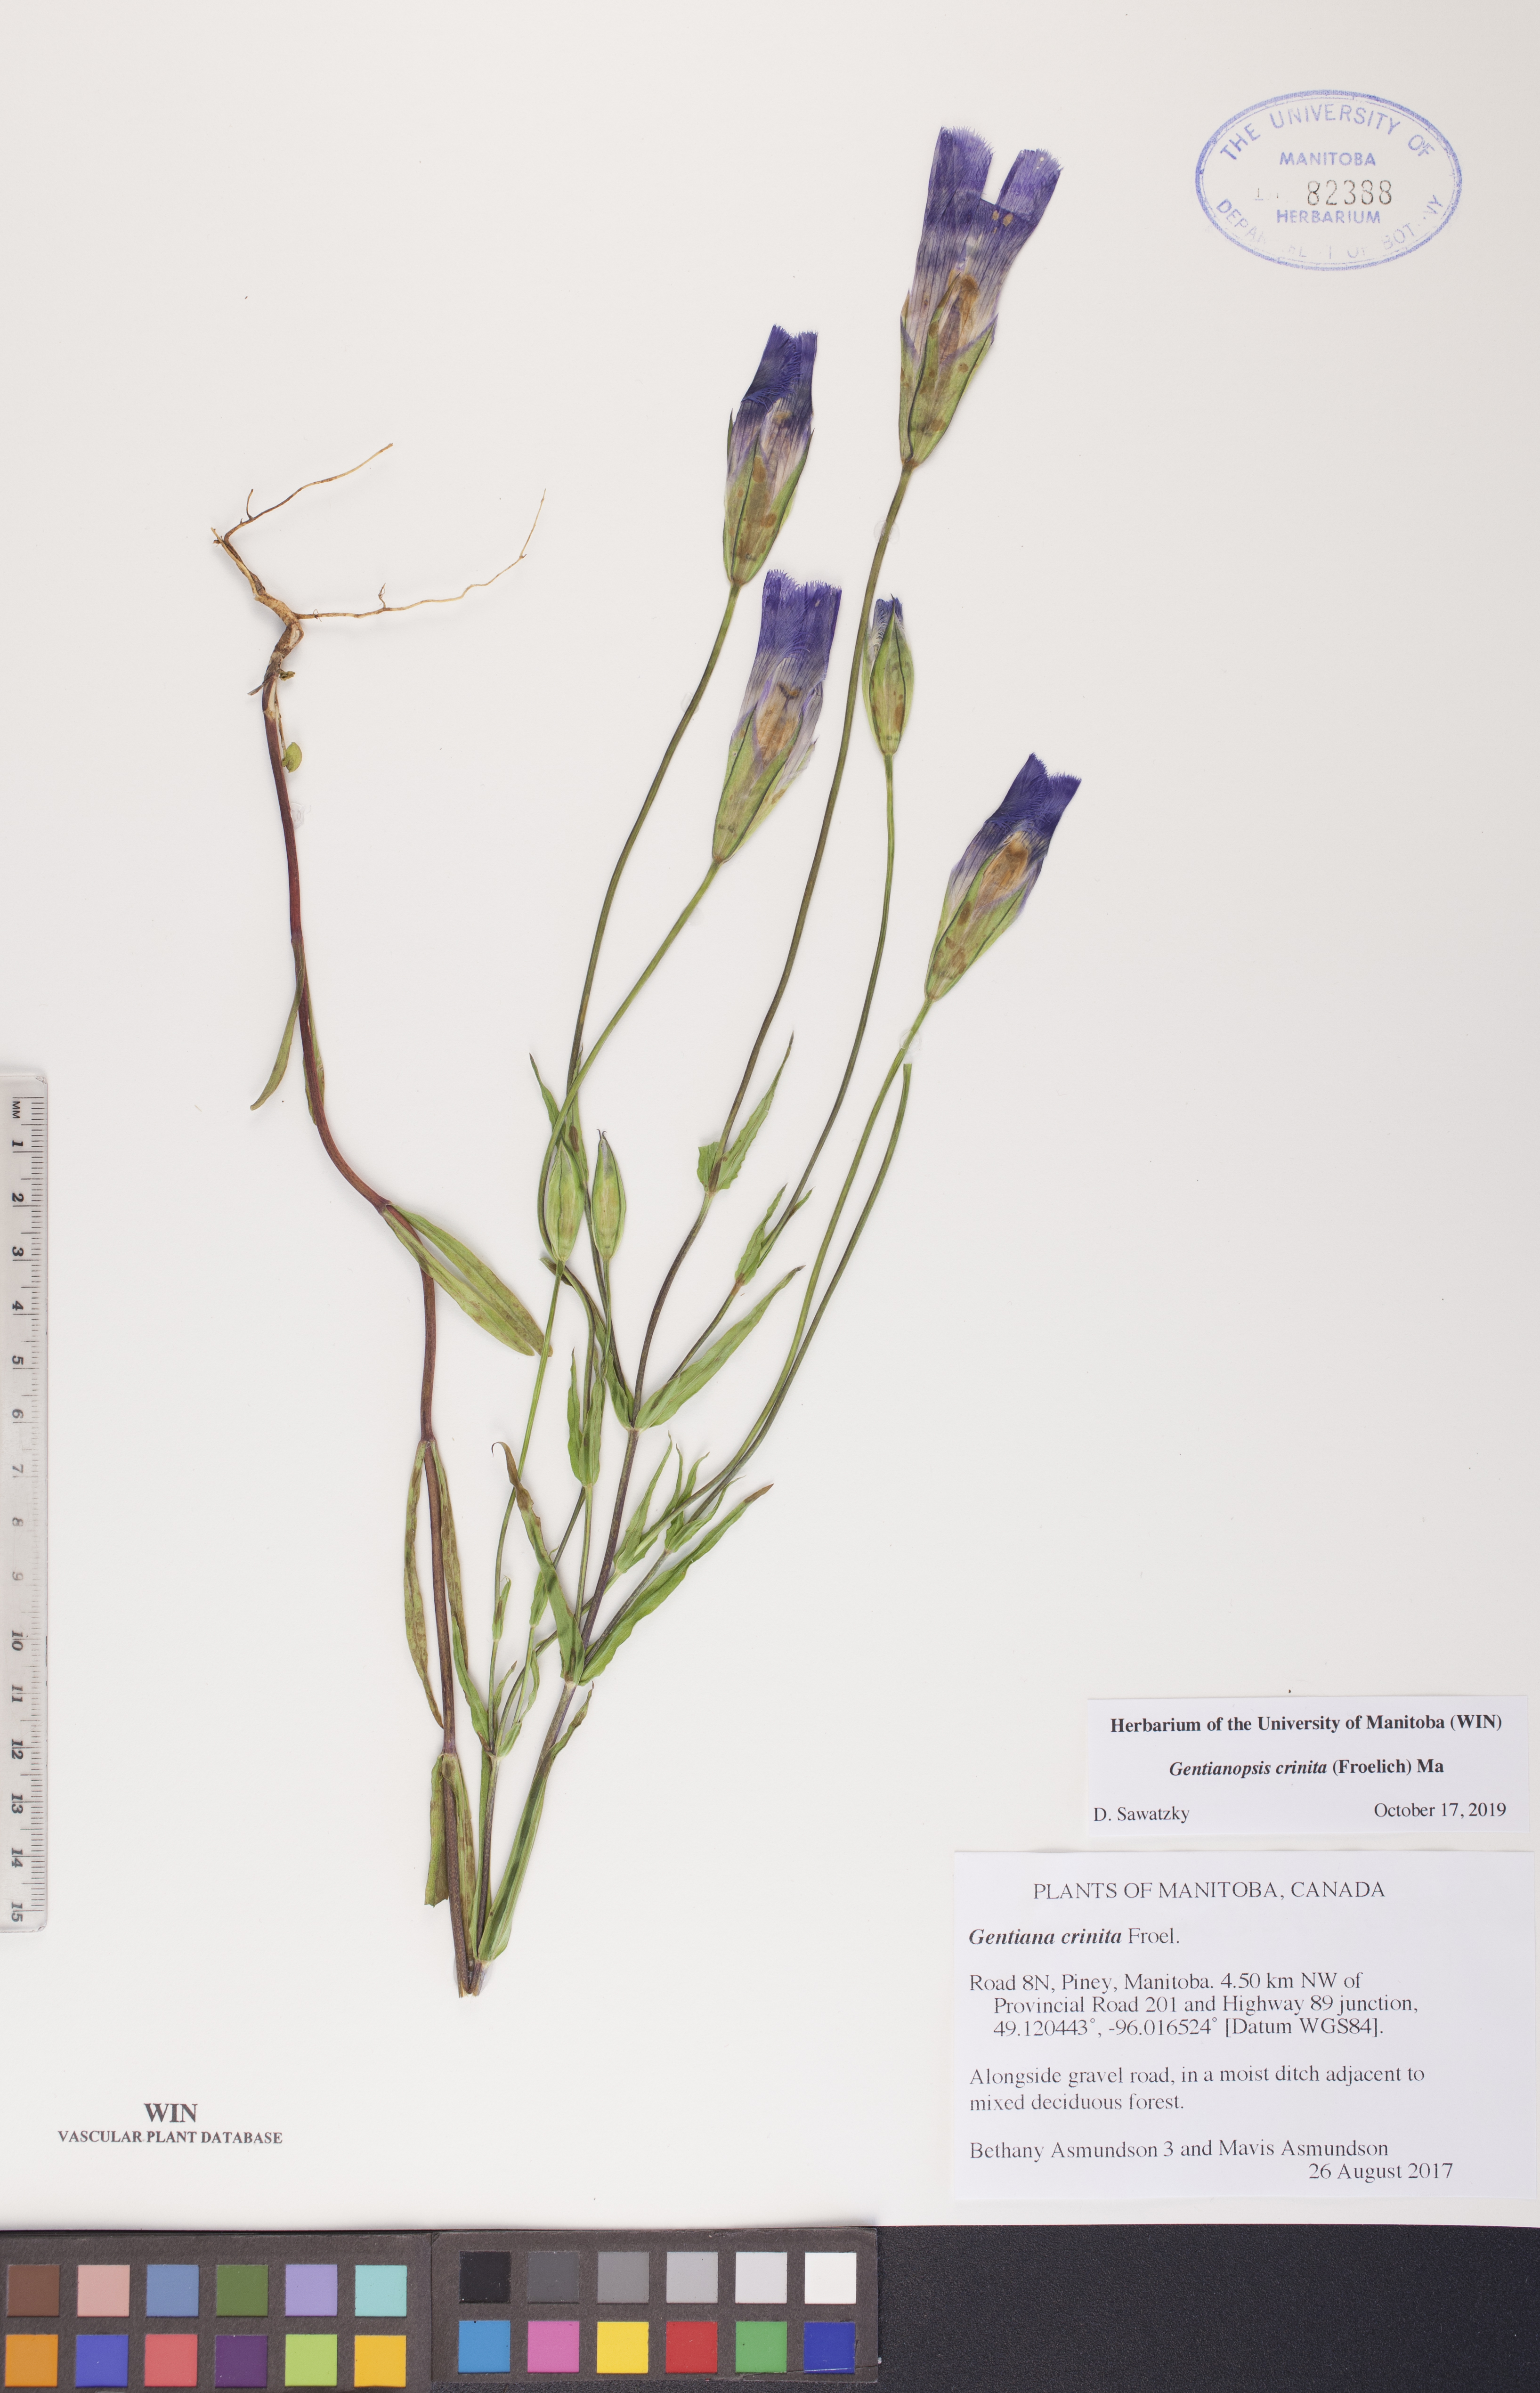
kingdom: Plantae
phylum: Tracheophyta
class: Magnoliopsida
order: Gentianales
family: Gentianaceae
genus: Gentianopsis
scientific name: Gentianopsis crinita
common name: Fringed-gentian
